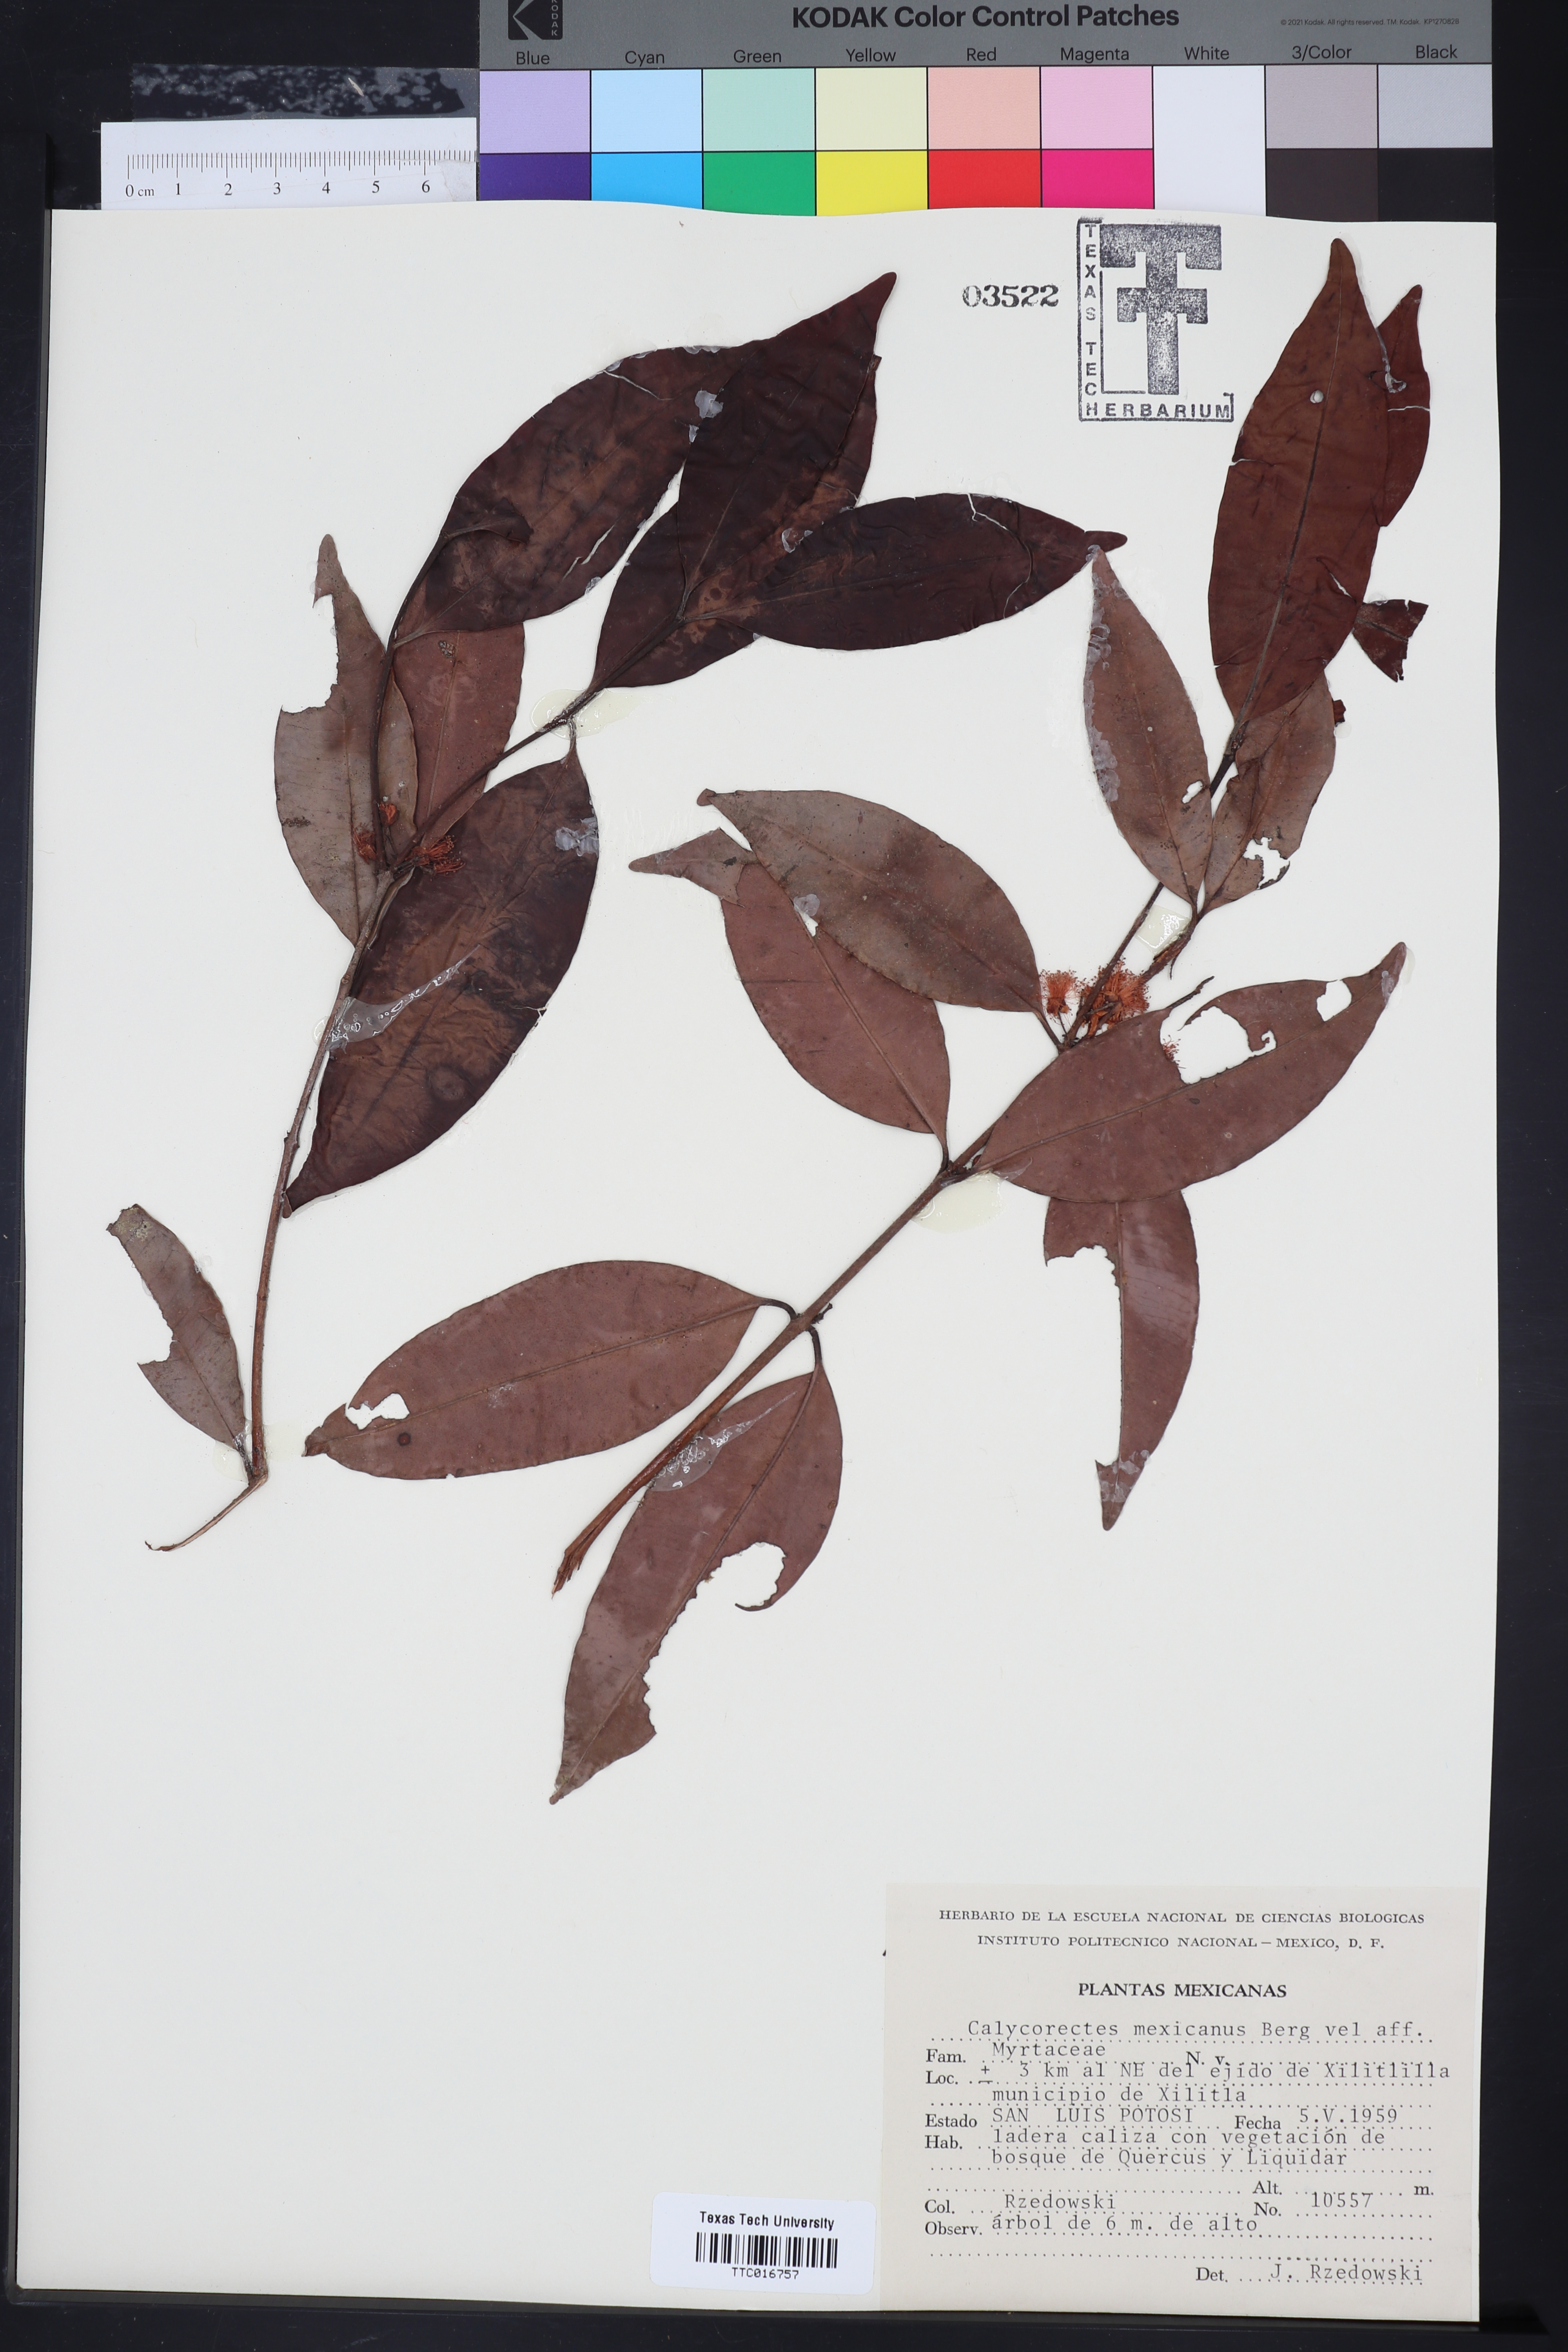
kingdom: Plantae
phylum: Tracheophyta
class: Magnoliopsida
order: Myrtales
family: Myrtaceae
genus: Calycorectes
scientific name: Calycorectes mexicanus
